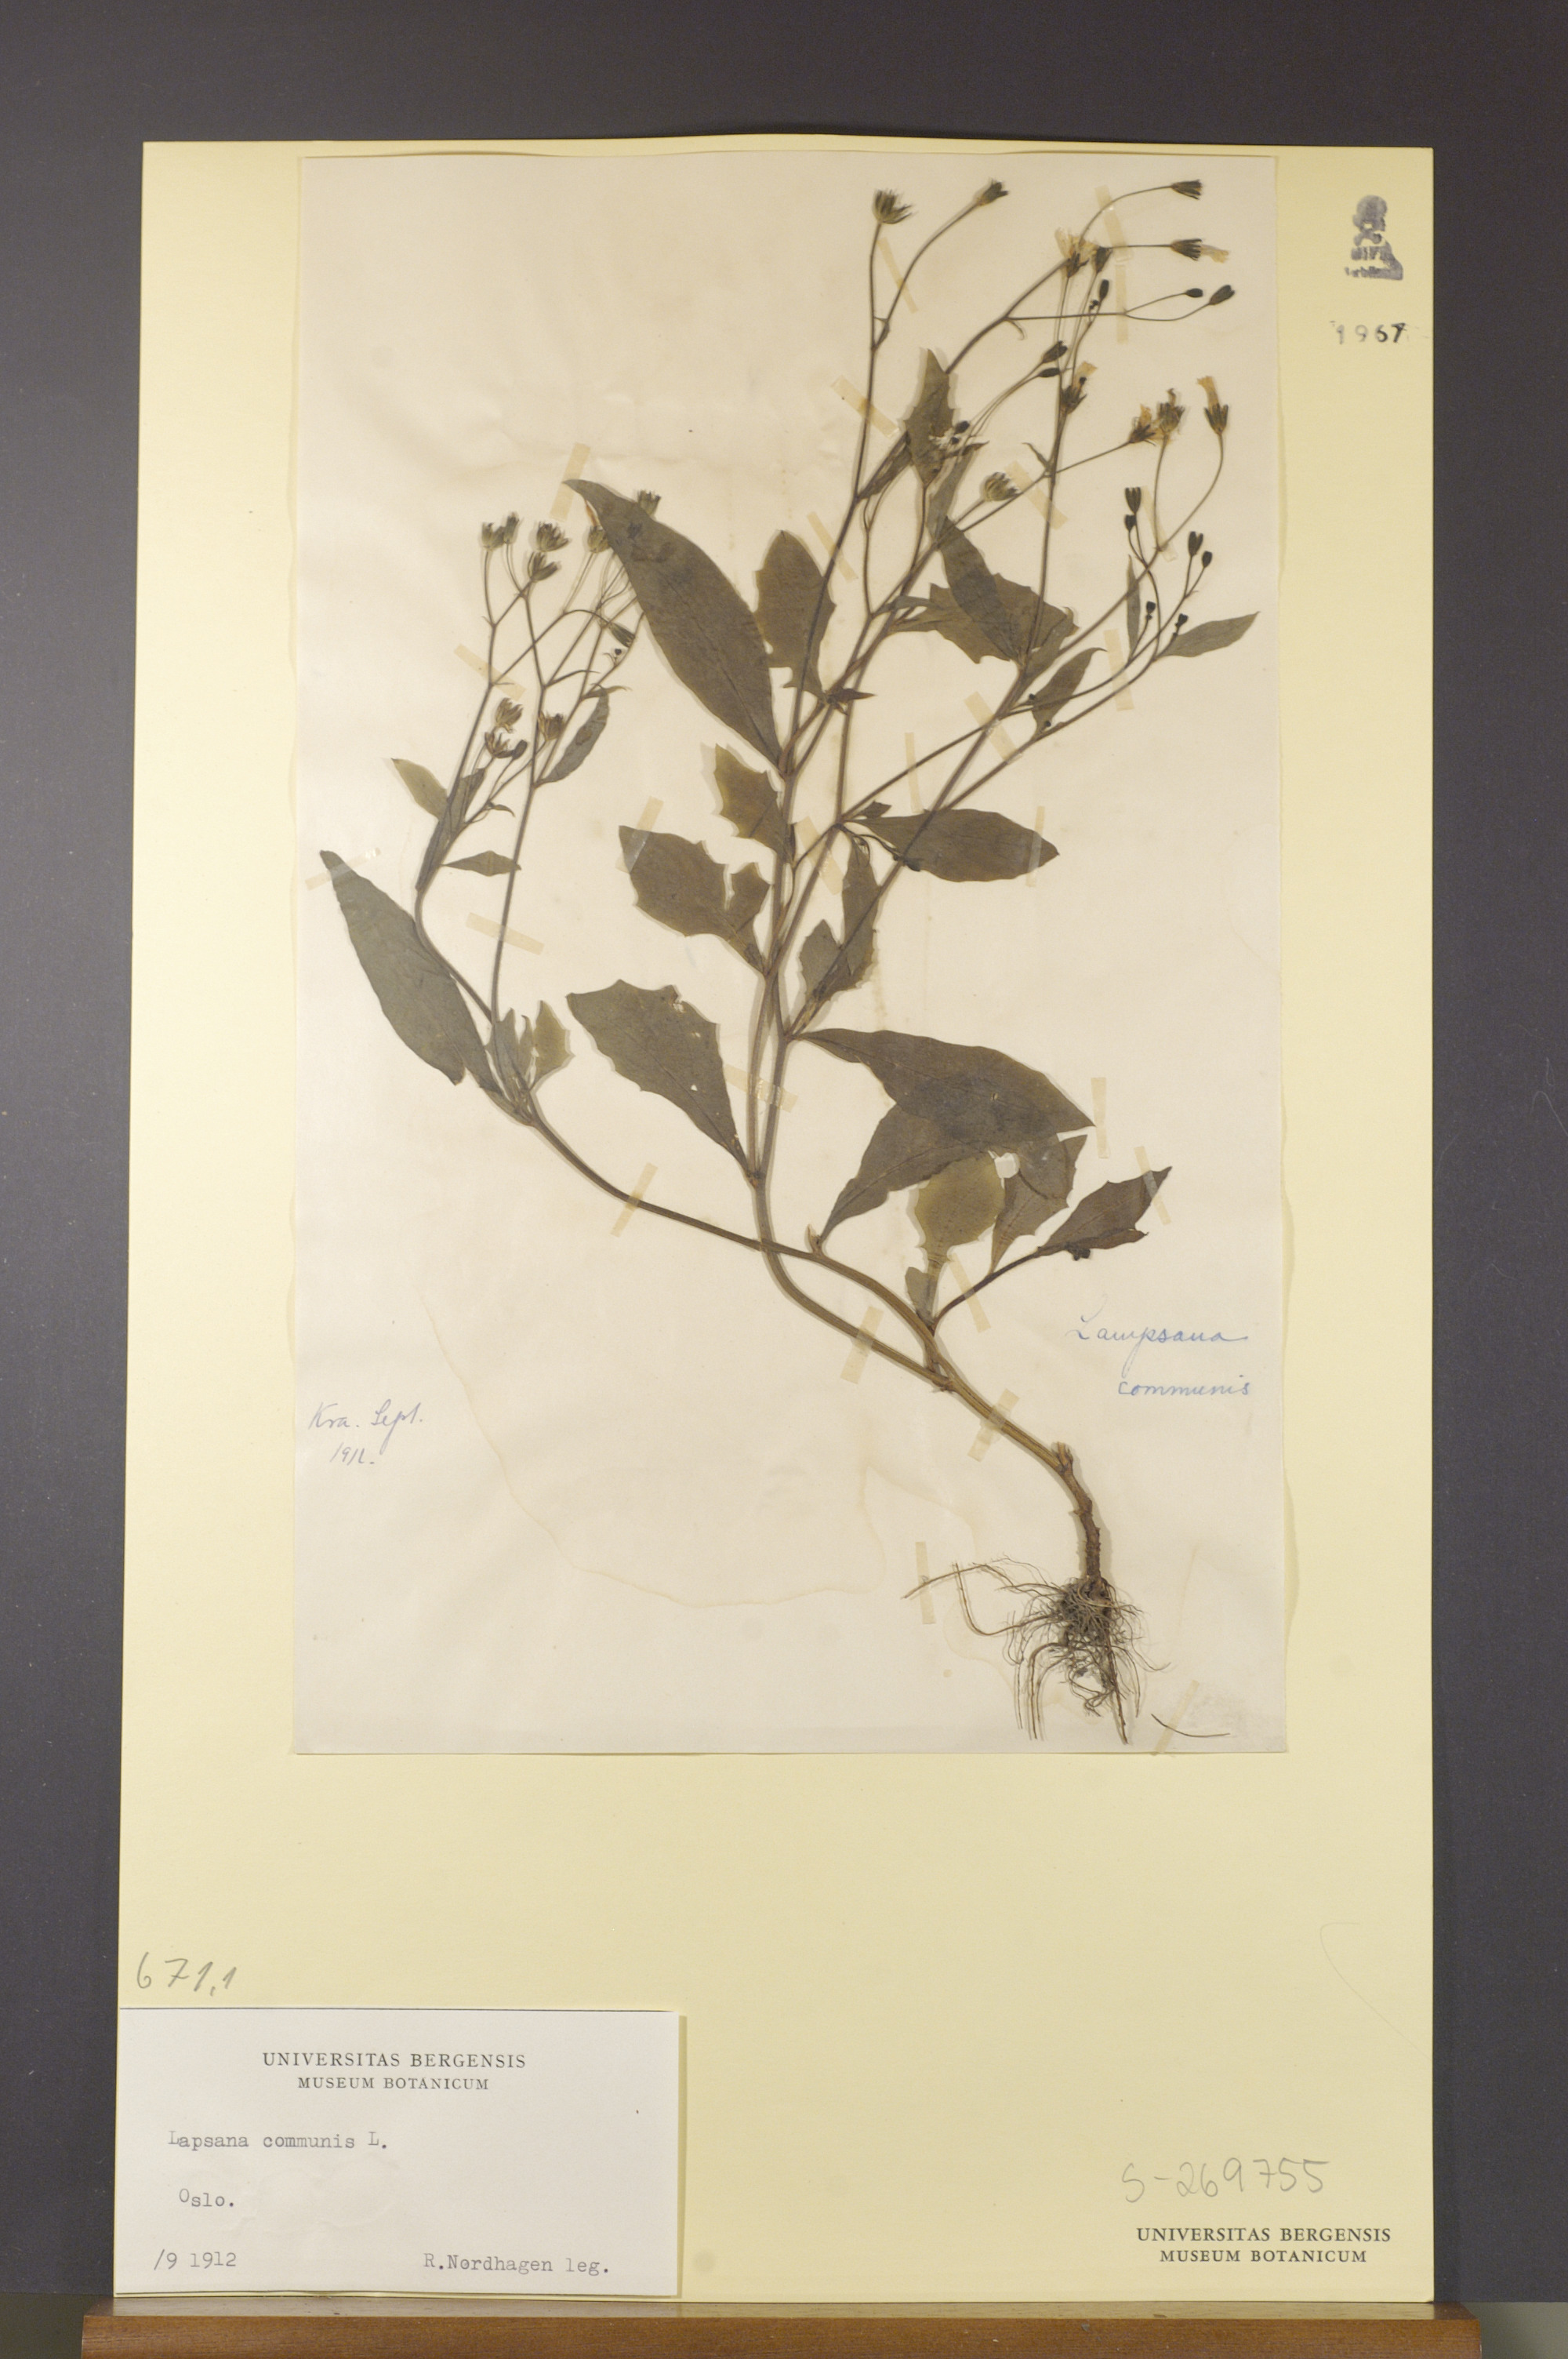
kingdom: Plantae
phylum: Tracheophyta
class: Magnoliopsida
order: Asterales
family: Asteraceae
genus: Lapsana
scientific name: Lapsana communis
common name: Nipplewort
